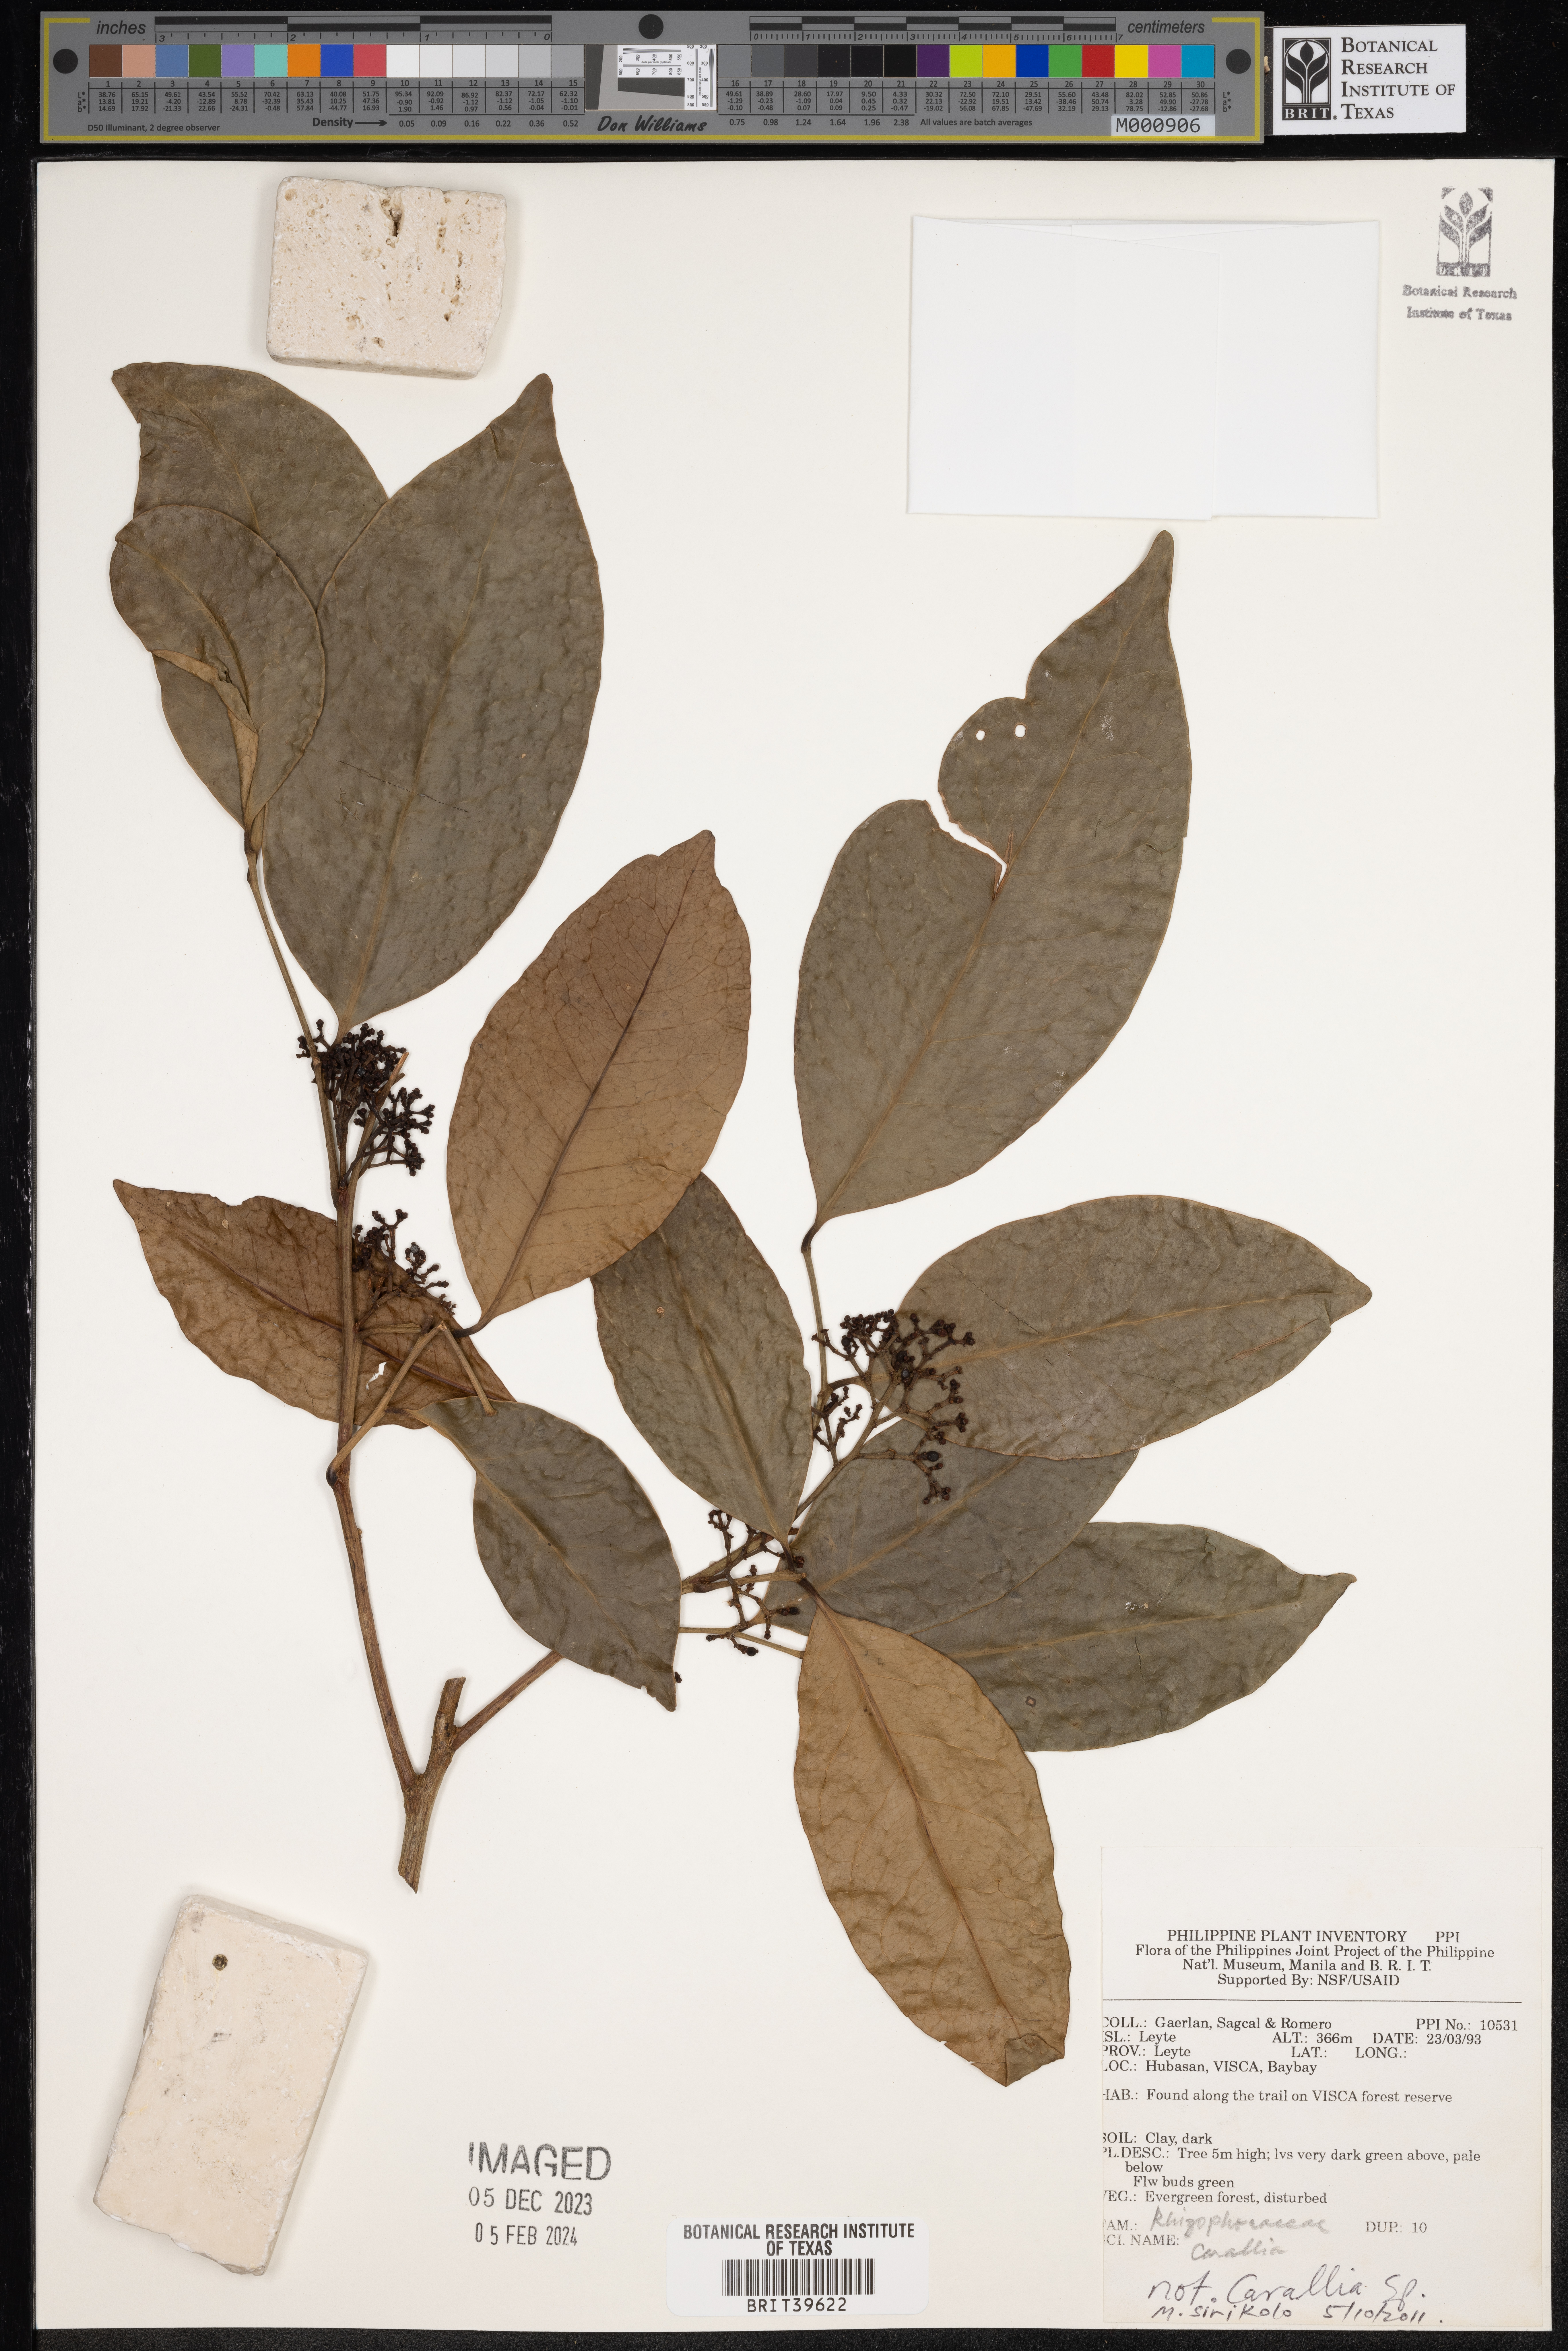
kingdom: Plantae
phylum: Tracheophyta
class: Magnoliopsida
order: Malpighiales
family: Rhizophoraceae
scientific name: Rhizophoraceae
